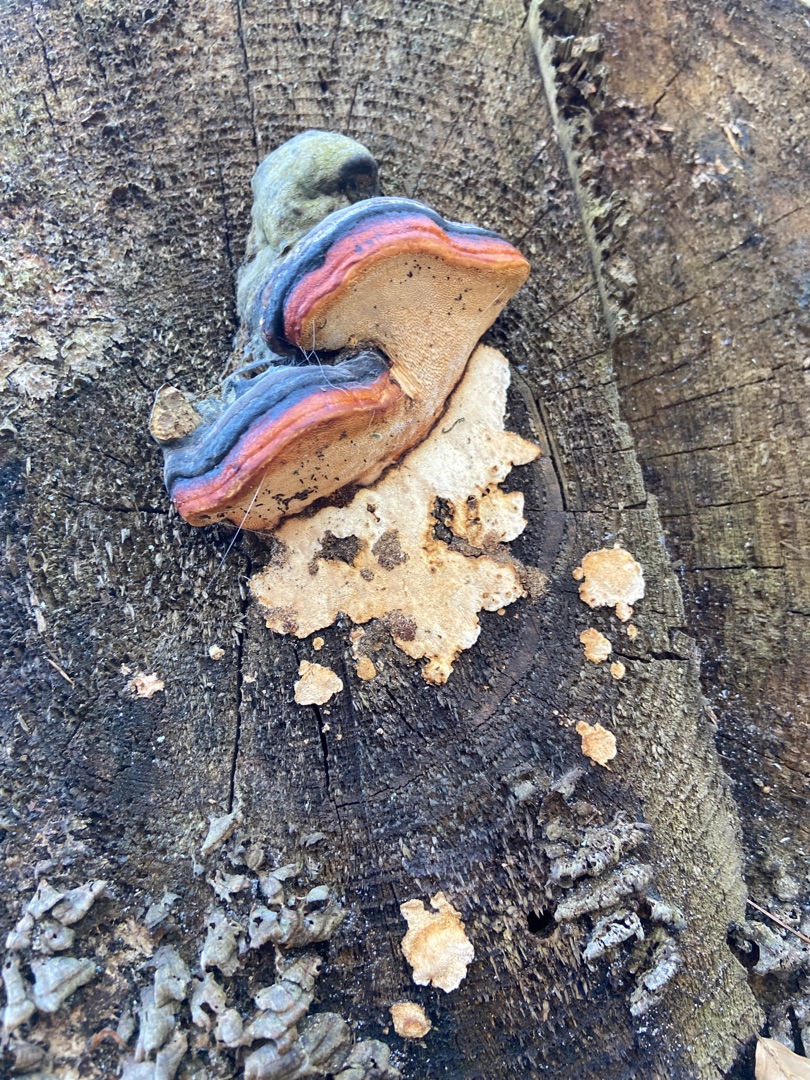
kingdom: Fungi
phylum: Basidiomycota
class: Agaricomycetes
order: Polyporales
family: Fomitopsidaceae
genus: Fomitopsis
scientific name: Fomitopsis pinicola
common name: Randbæltet hovporesvamp
